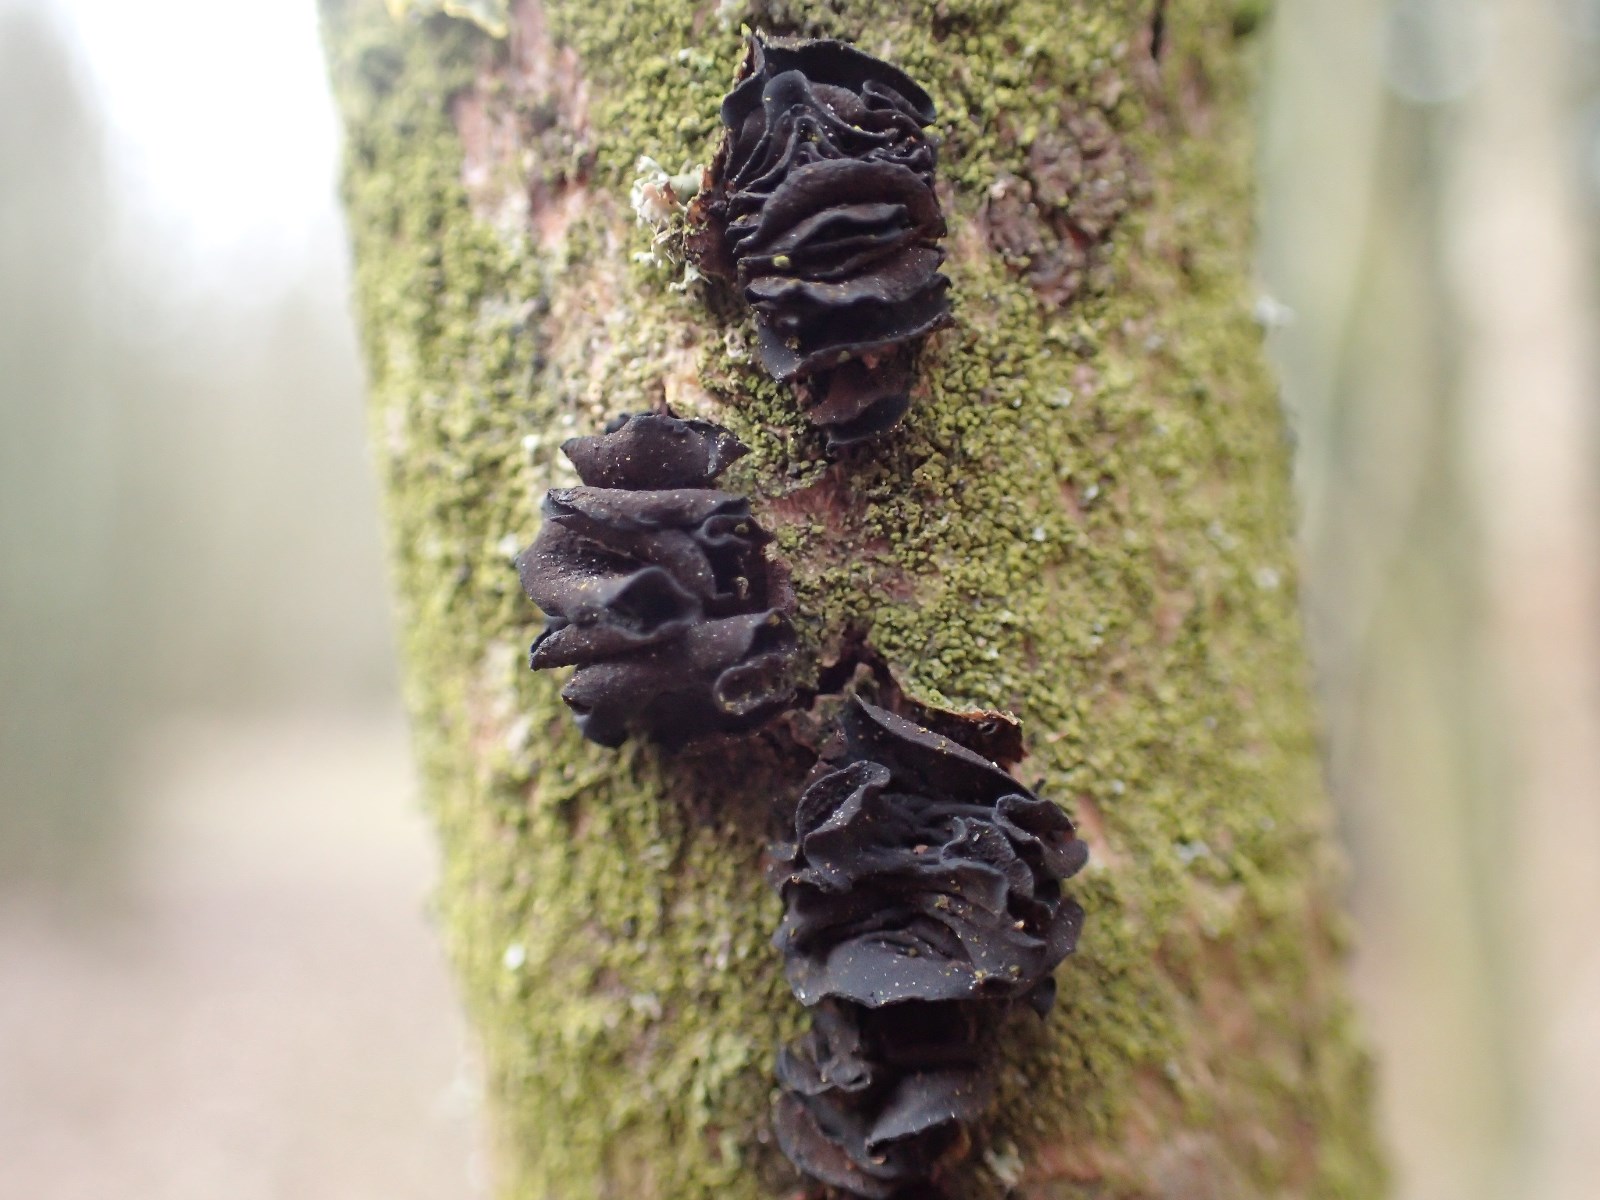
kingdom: Fungi
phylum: Ascomycota
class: Leotiomycetes
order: Helotiales
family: Cordieritidaceae
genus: Ionomidotis
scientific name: Ionomidotis fulvotingens
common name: rødmende tjæreskive
